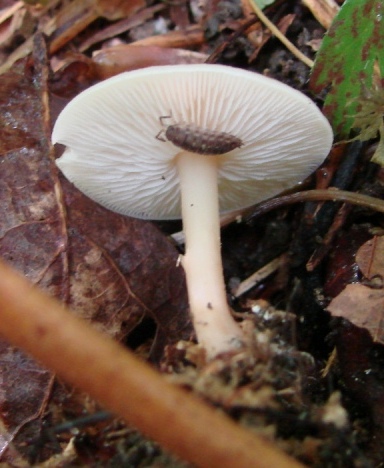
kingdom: Fungi
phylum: Basidiomycota
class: Agaricomycetes
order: Agaricales
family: Omphalotaceae
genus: Gymnopus
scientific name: Gymnopus aquosus
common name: bleg fladhat
